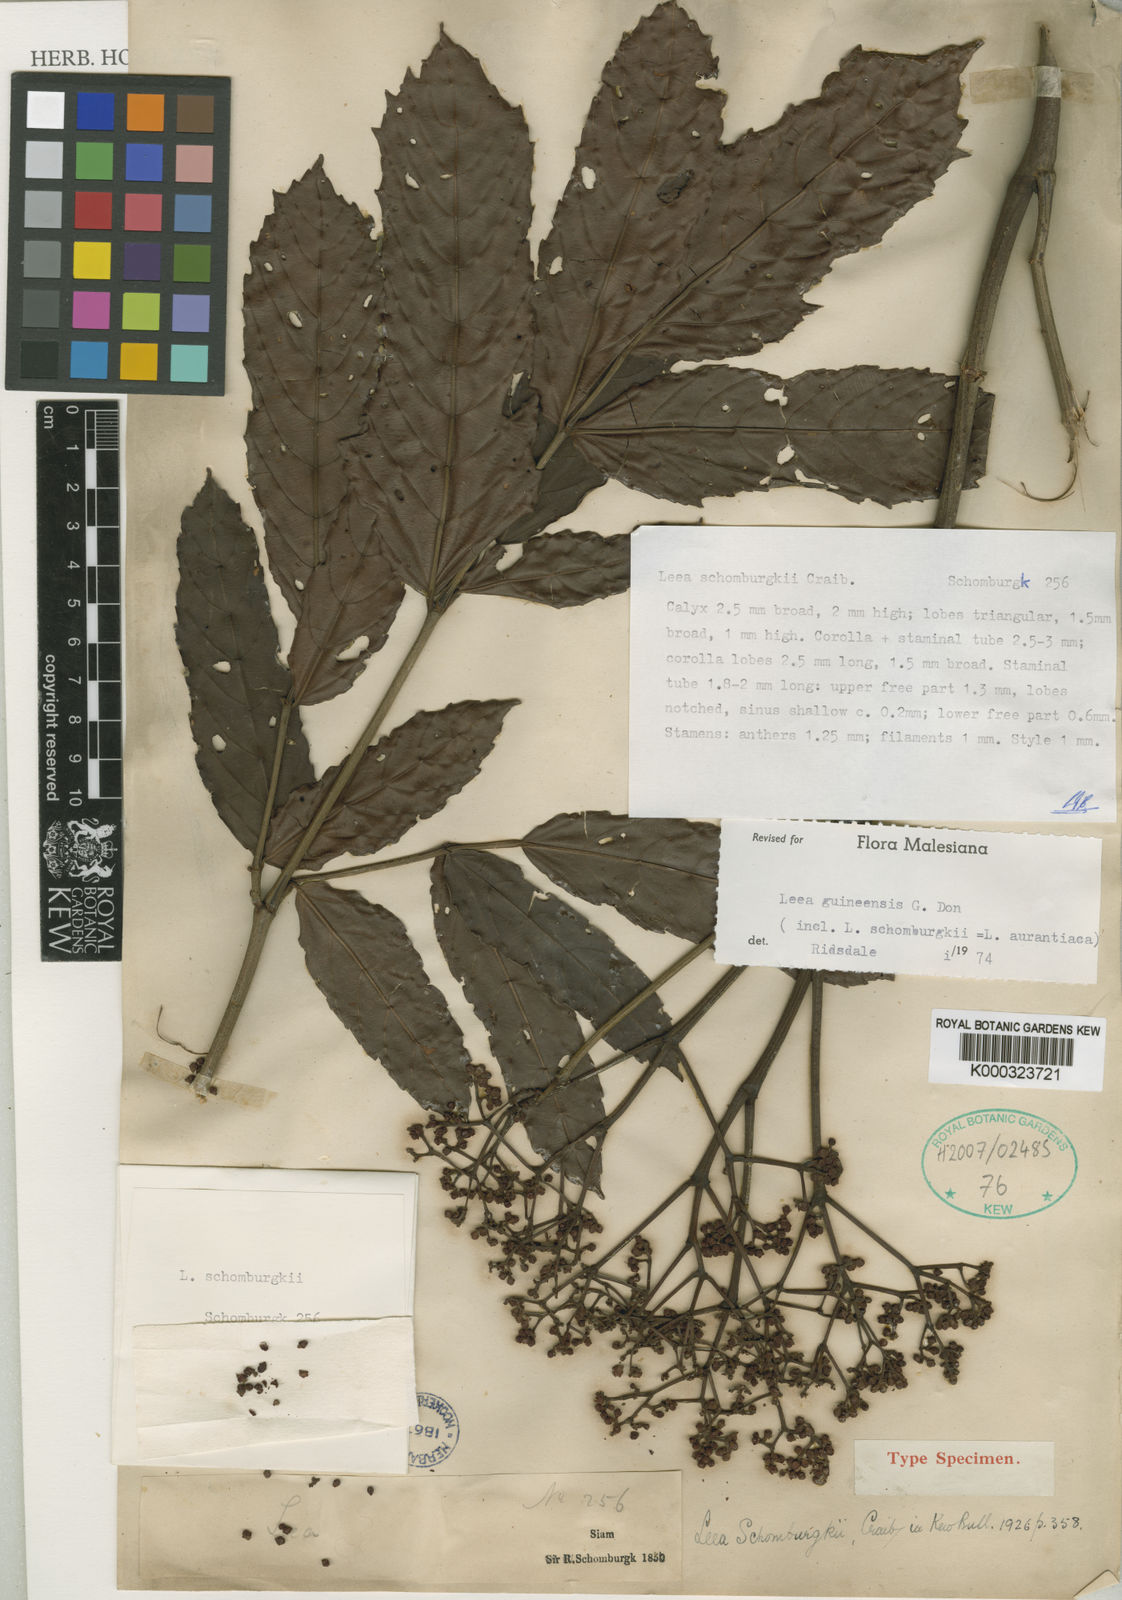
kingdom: Plantae
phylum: Tracheophyta
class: Magnoliopsida
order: Vitales
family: Vitaceae
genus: Leea
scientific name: Leea guineensis
